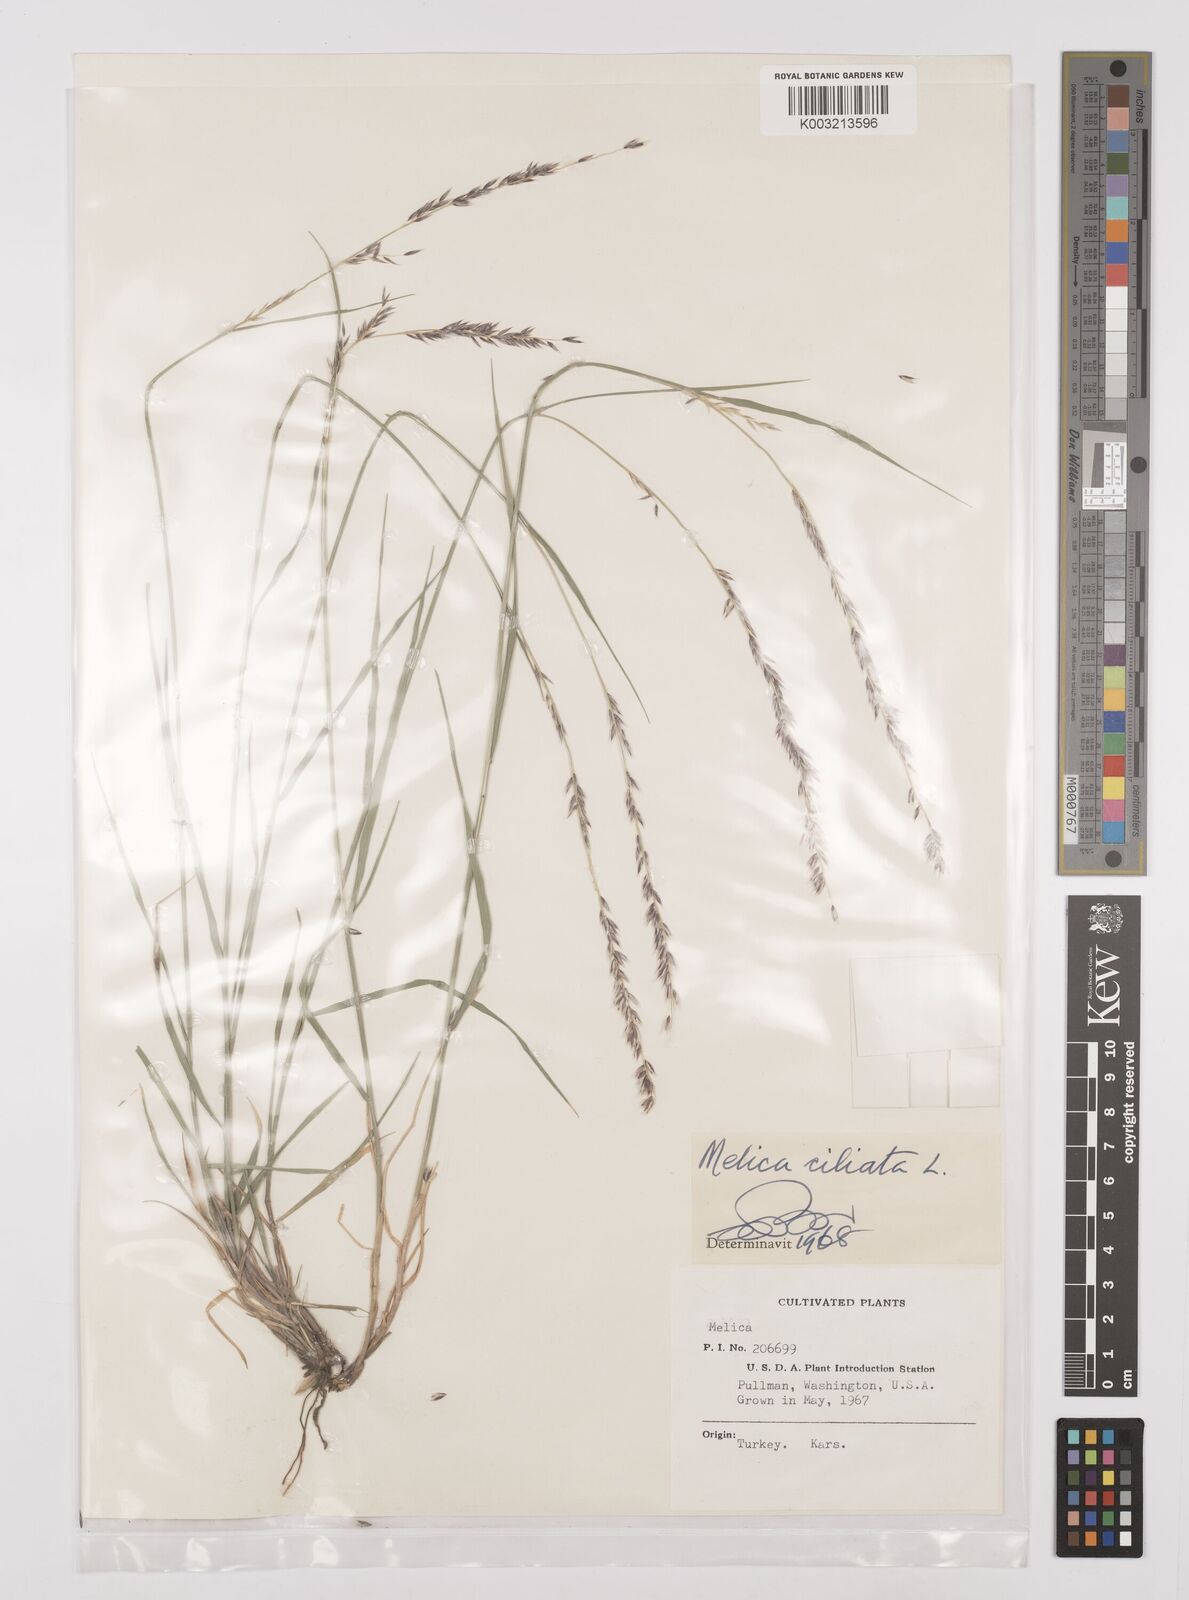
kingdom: Plantae
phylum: Tracheophyta
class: Liliopsida
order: Poales
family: Poaceae
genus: Melica
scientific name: Melica ciliata
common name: Hairy melicgrass
